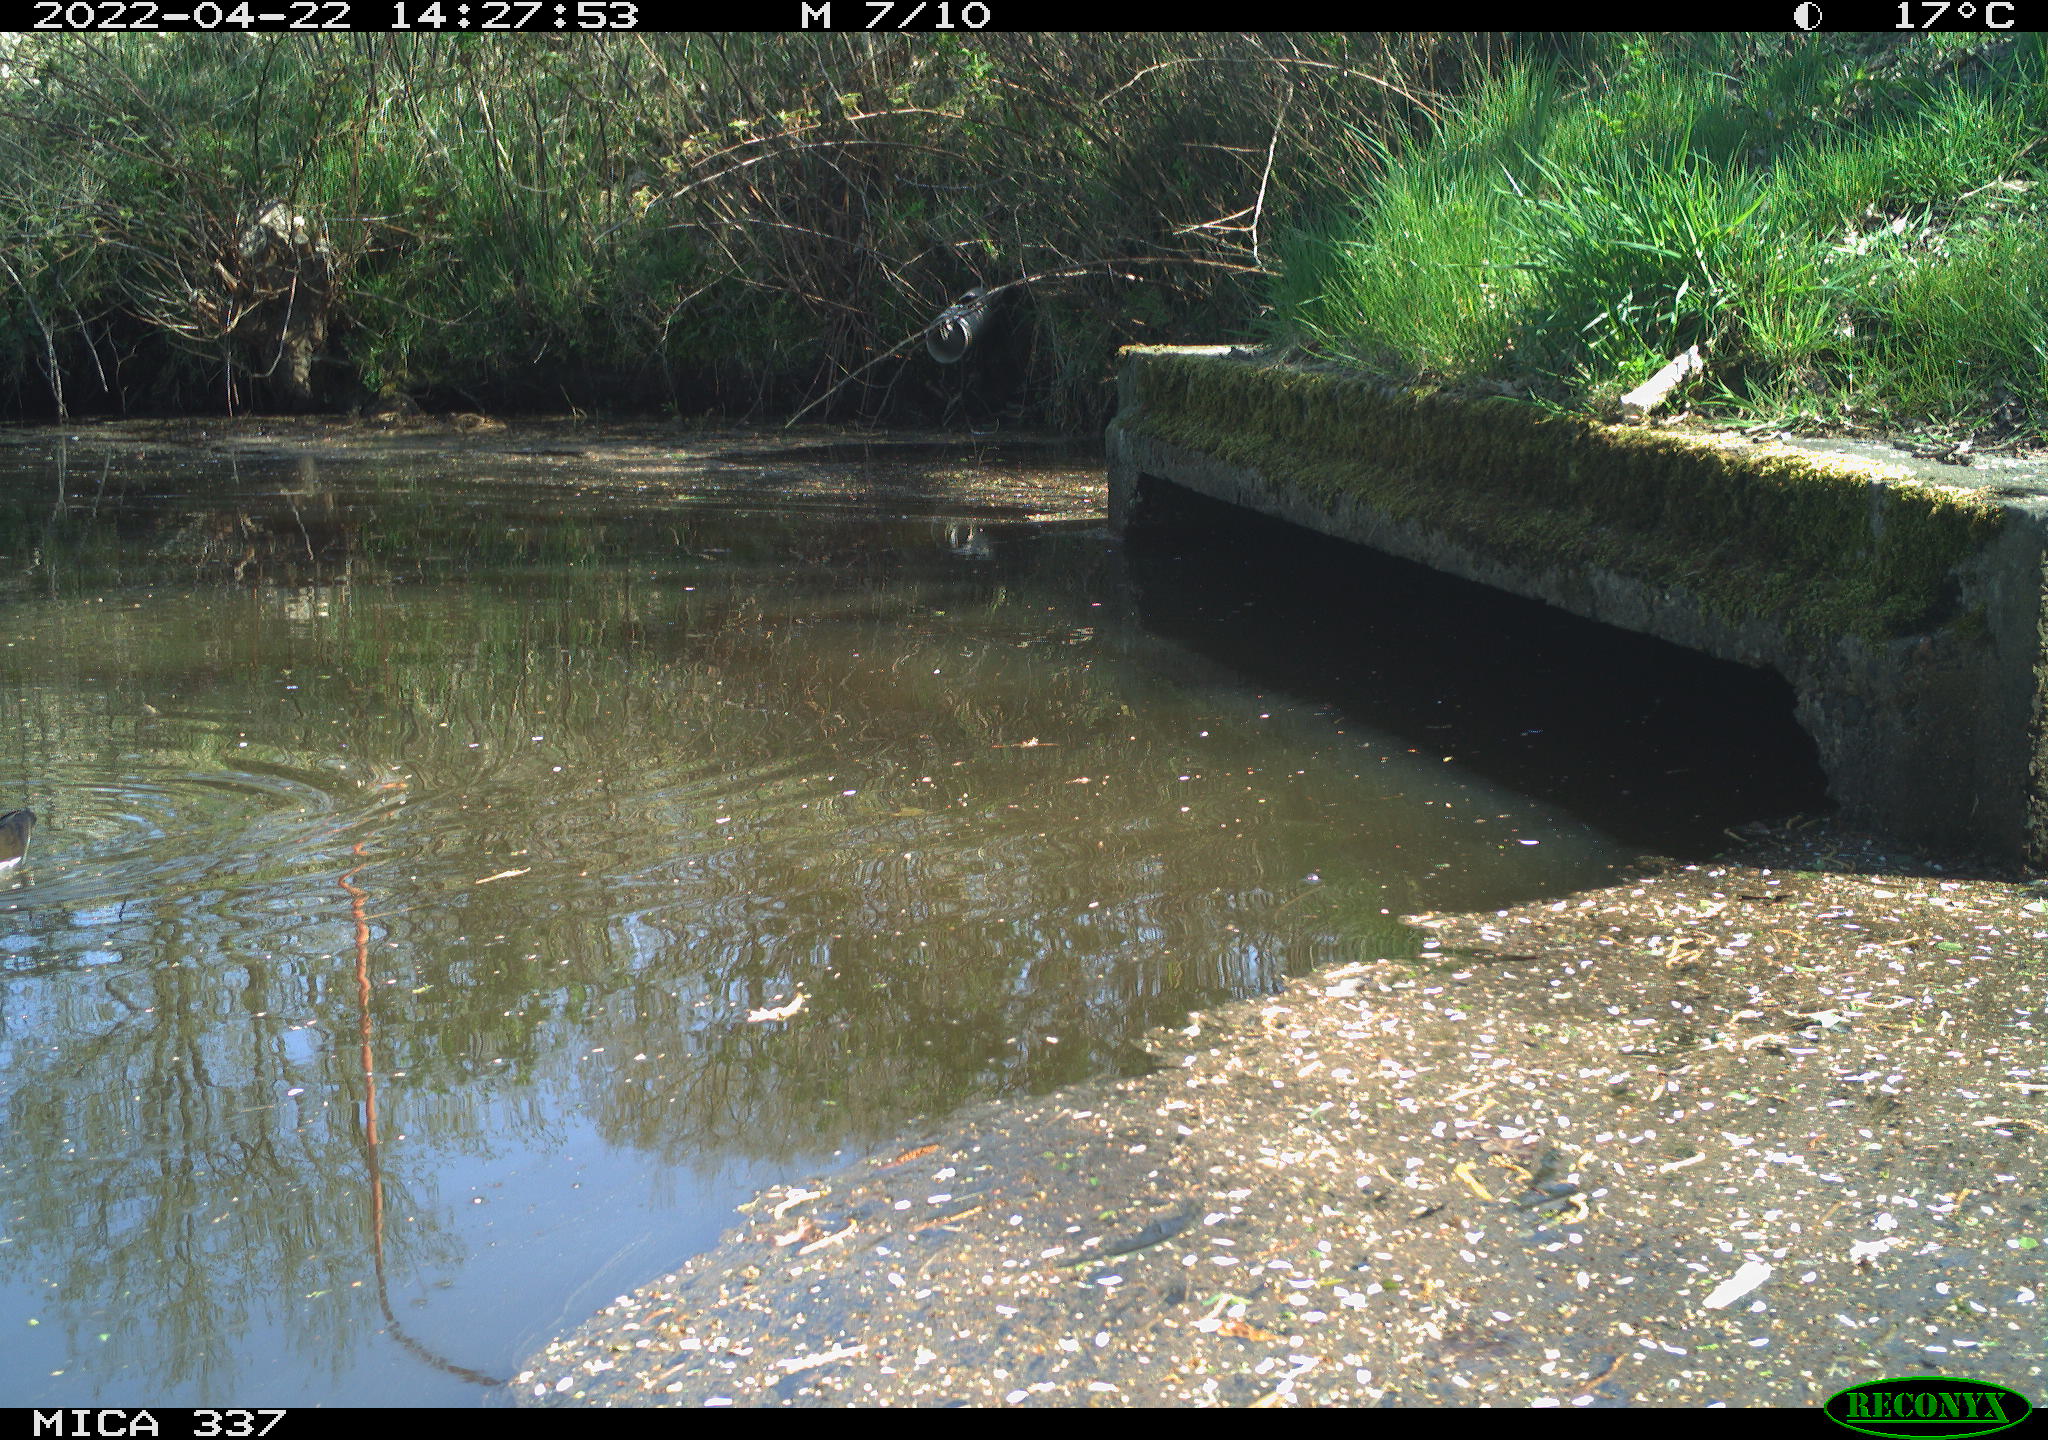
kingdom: Animalia
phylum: Chordata
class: Aves
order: Gruiformes
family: Rallidae
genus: Gallinula
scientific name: Gallinula chloropus
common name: Common moorhen
